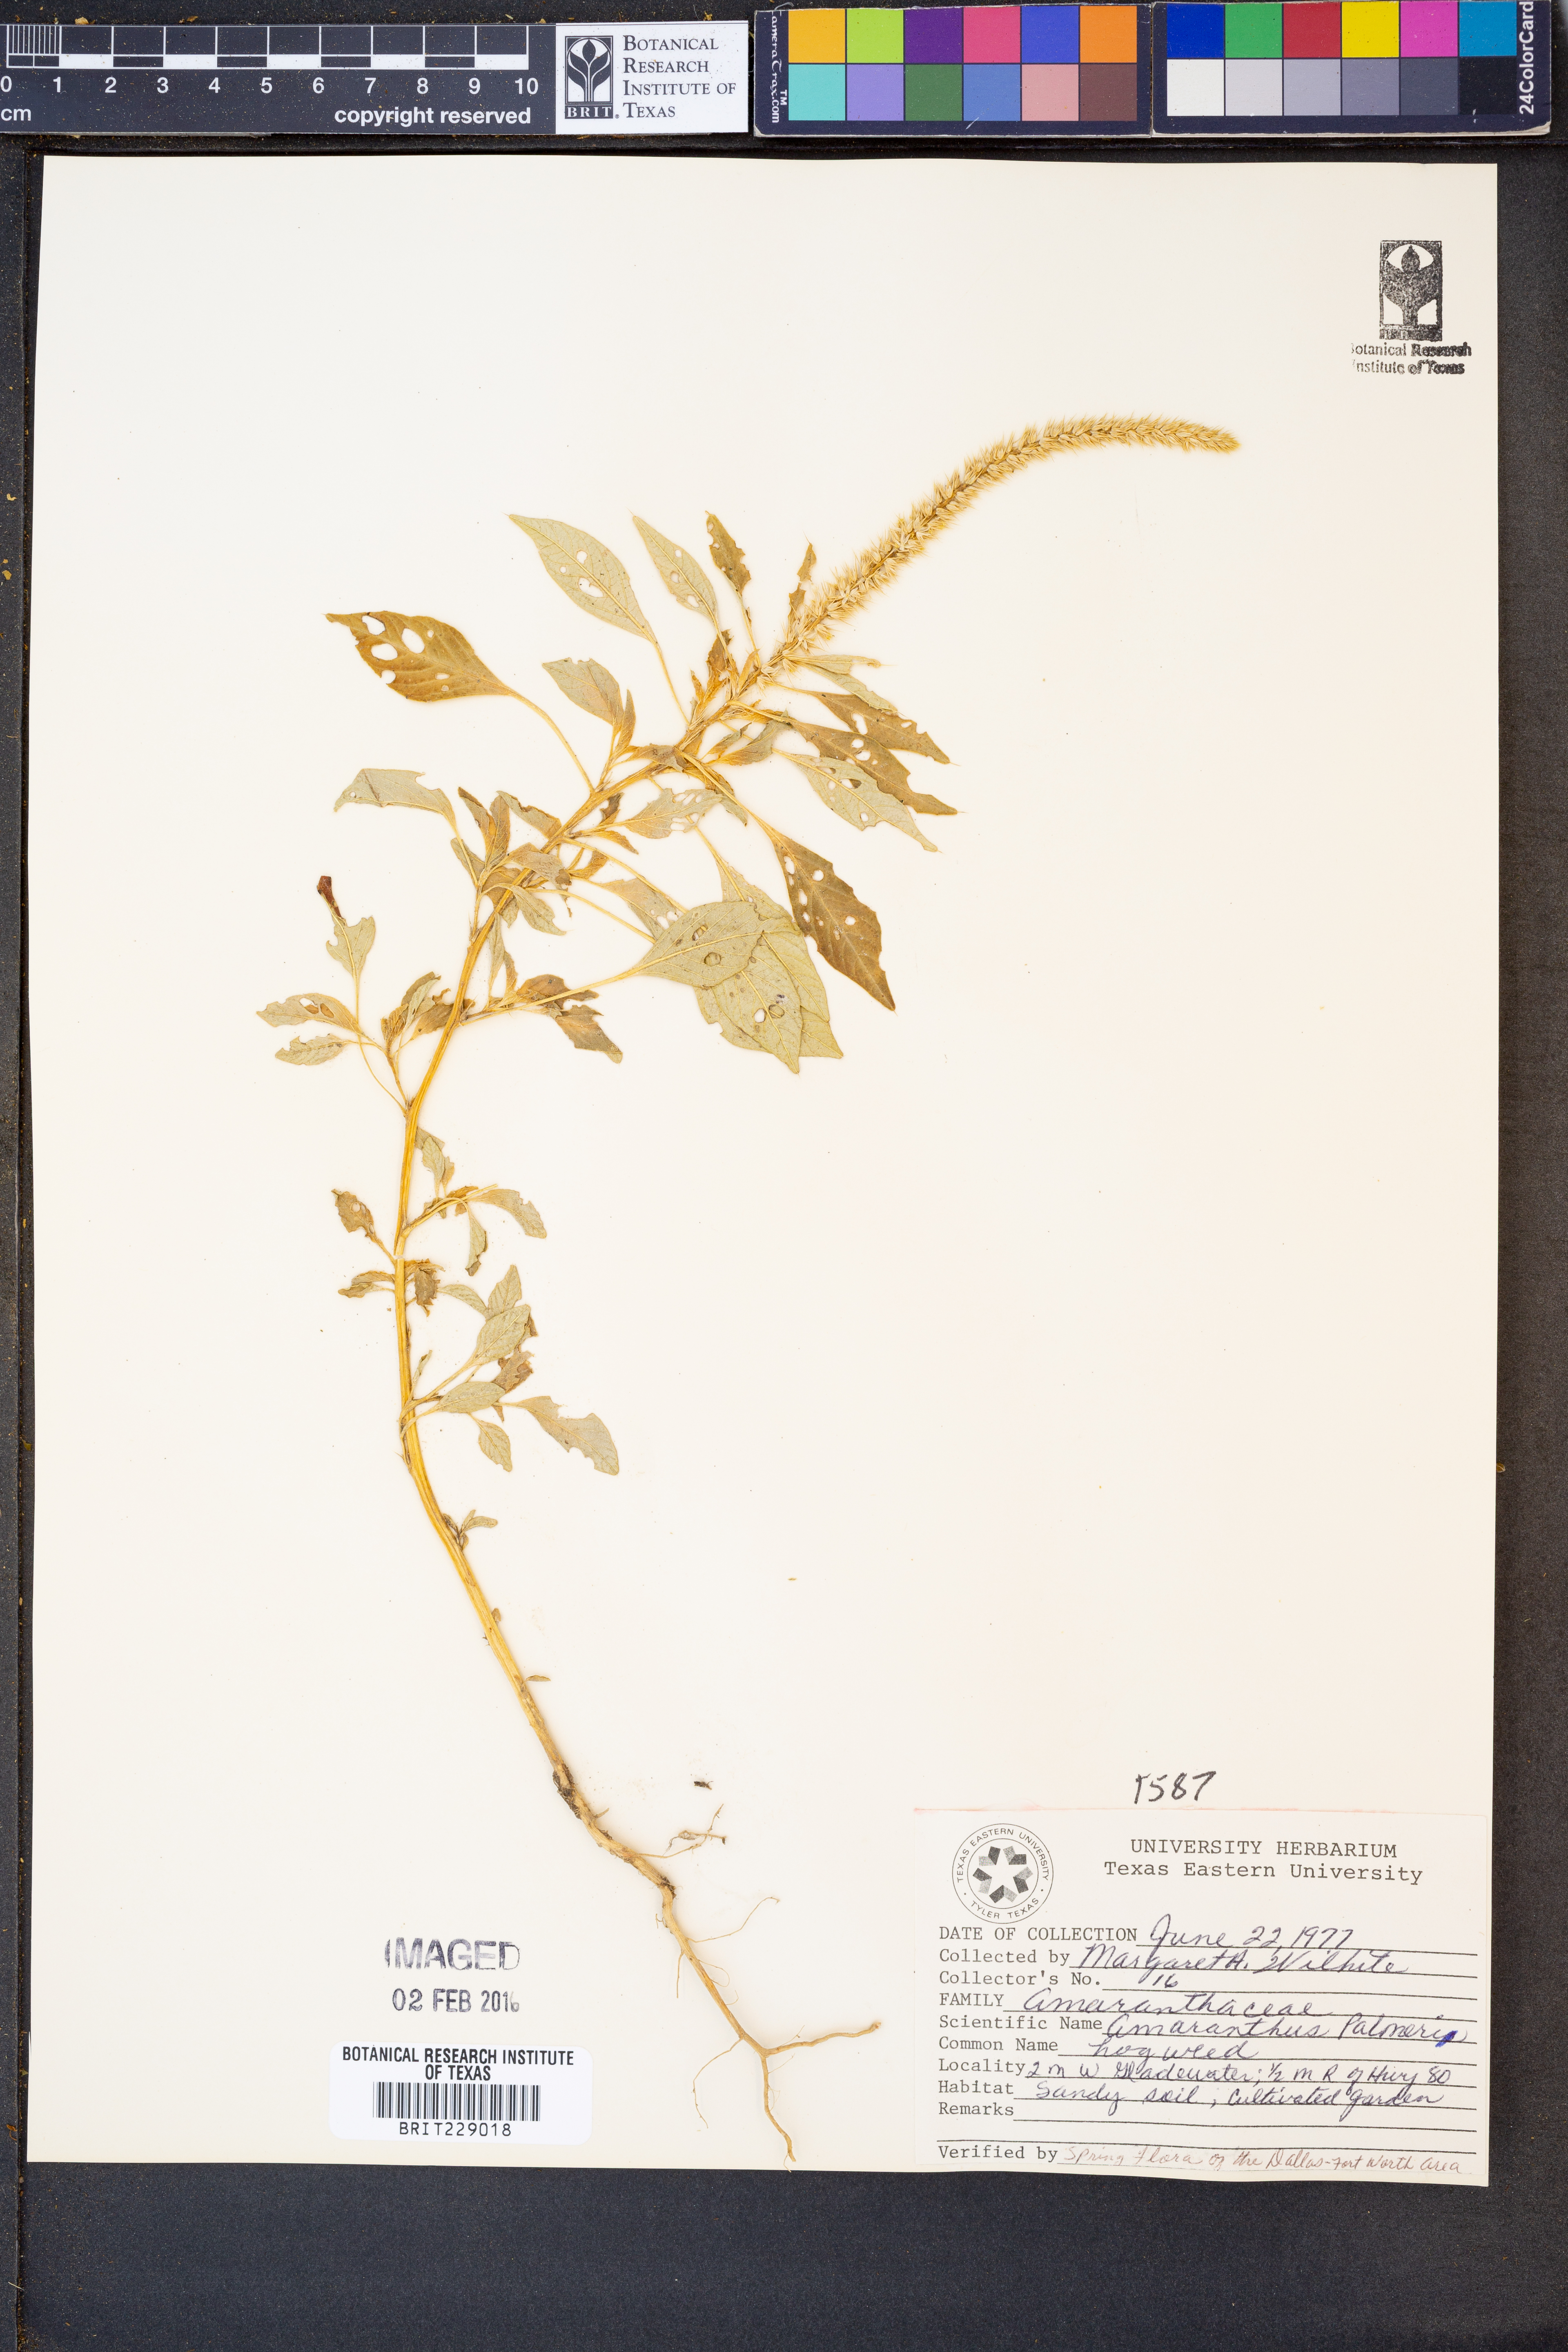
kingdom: Plantae
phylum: Tracheophyta
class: Magnoliopsida
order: Caryophyllales
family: Amaranthaceae
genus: Amaranthus
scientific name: Amaranthus palmeri
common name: Dioecious amaranth
